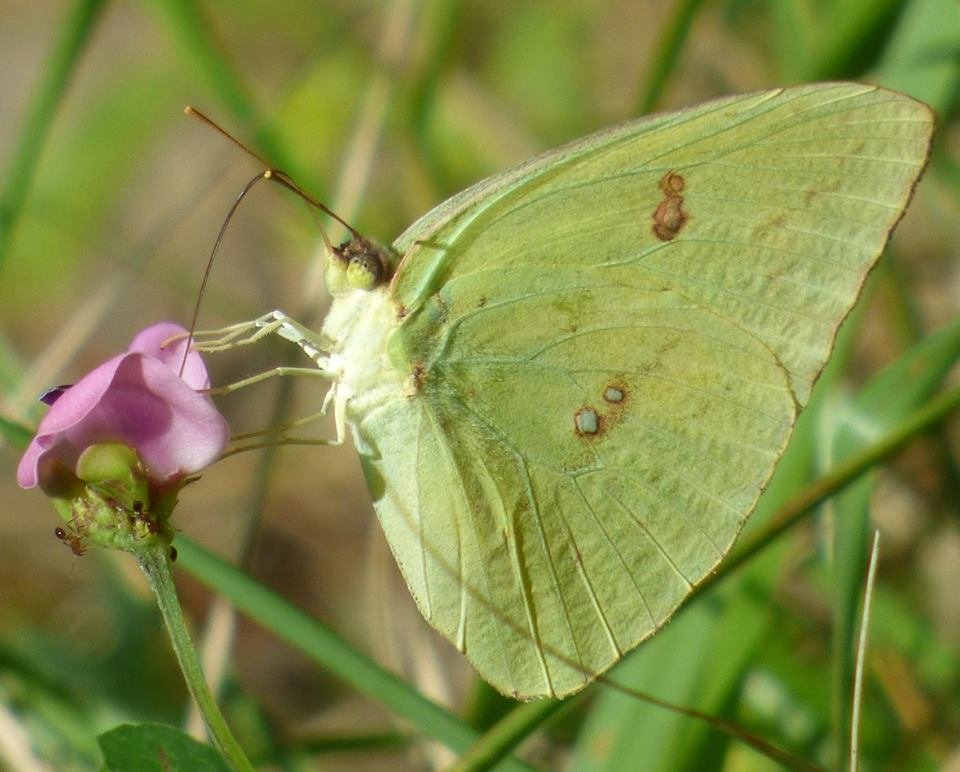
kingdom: Animalia
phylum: Arthropoda
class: Insecta
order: Lepidoptera
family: Pieridae
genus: Phoebis
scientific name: Phoebis sennae
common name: Cloudless Sulphur
